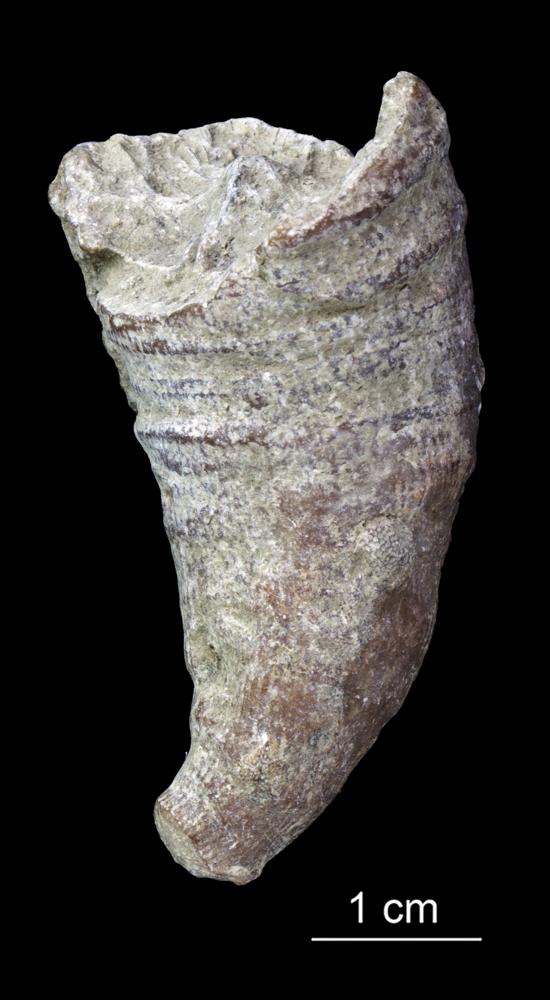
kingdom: Animalia
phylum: Cnidaria
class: Anthozoa
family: Streptelasmatidae
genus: Dinophyllum
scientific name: Dinophyllum
